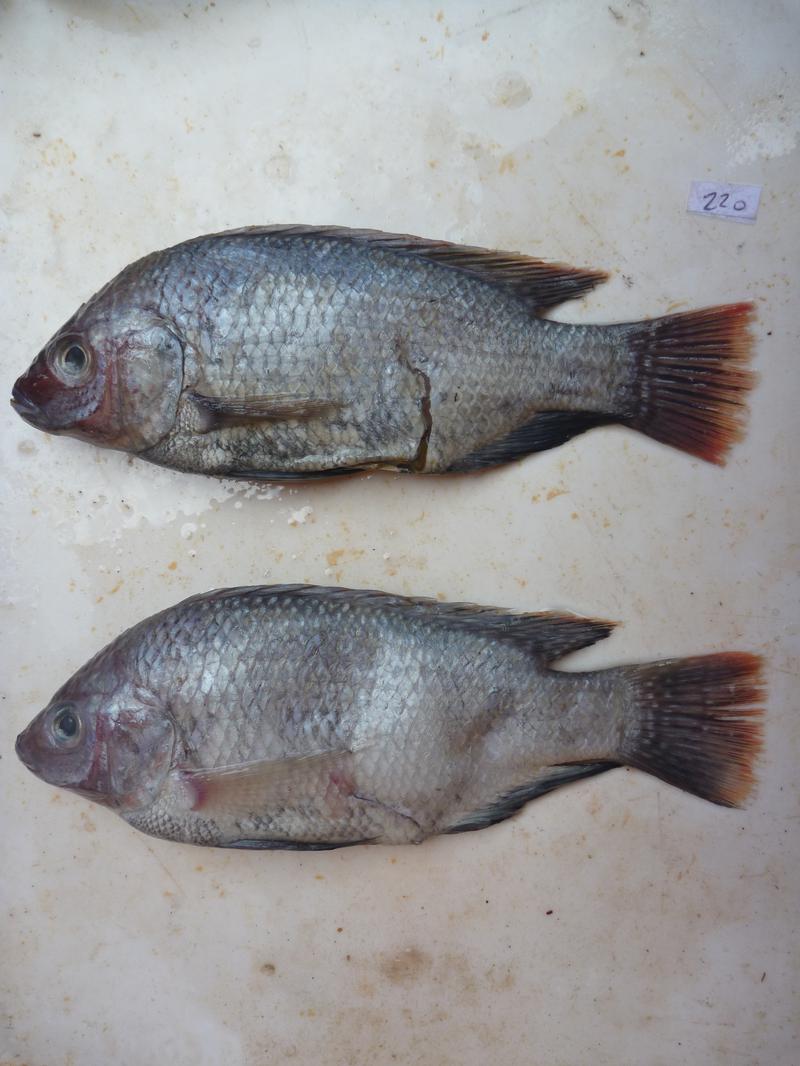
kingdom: Animalia
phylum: Chordata
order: Perciformes
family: Cichlidae
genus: Oreochromis
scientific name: Oreochromis rukwaensis
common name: Lake rukwa tilapia
